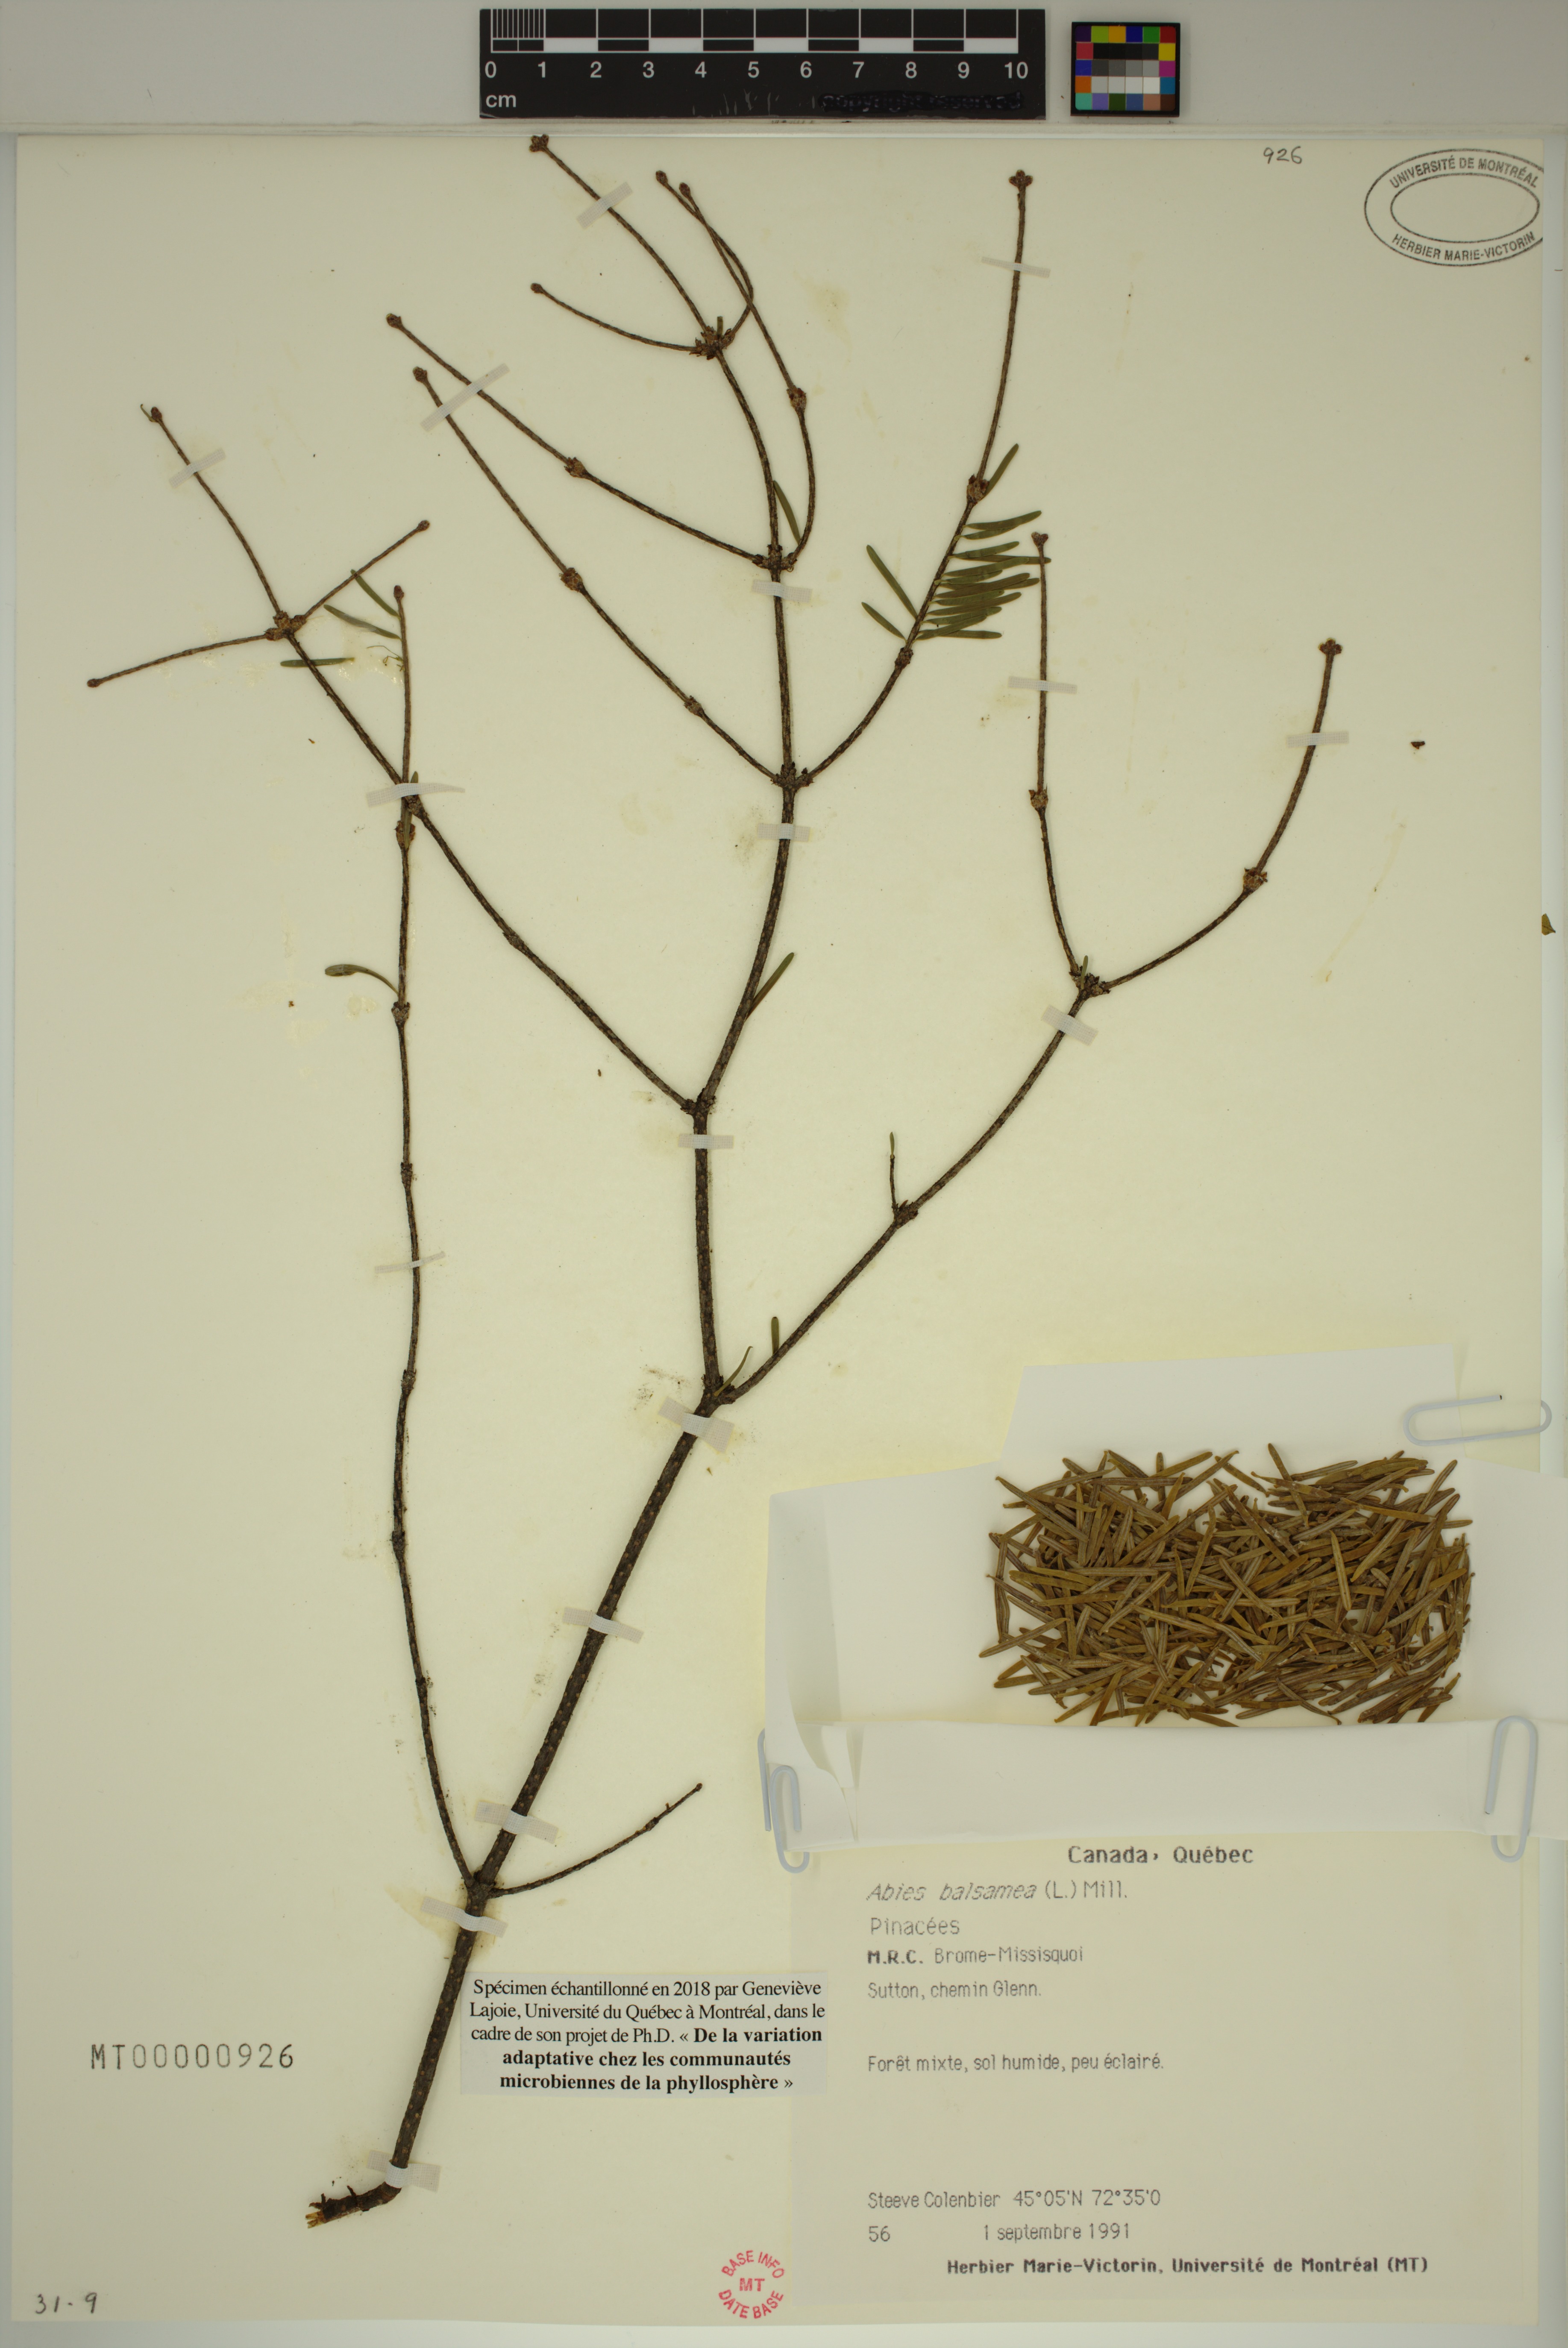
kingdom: Plantae
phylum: Tracheophyta
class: Pinopsida
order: Pinales
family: Pinaceae
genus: Abies
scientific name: Abies balsamea
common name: Balsam fir
